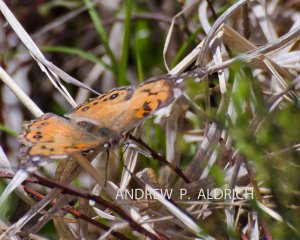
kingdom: Animalia
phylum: Arthropoda
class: Insecta
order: Lepidoptera
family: Nymphalidae
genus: Vanessa
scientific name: Vanessa virginiensis
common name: American Lady
